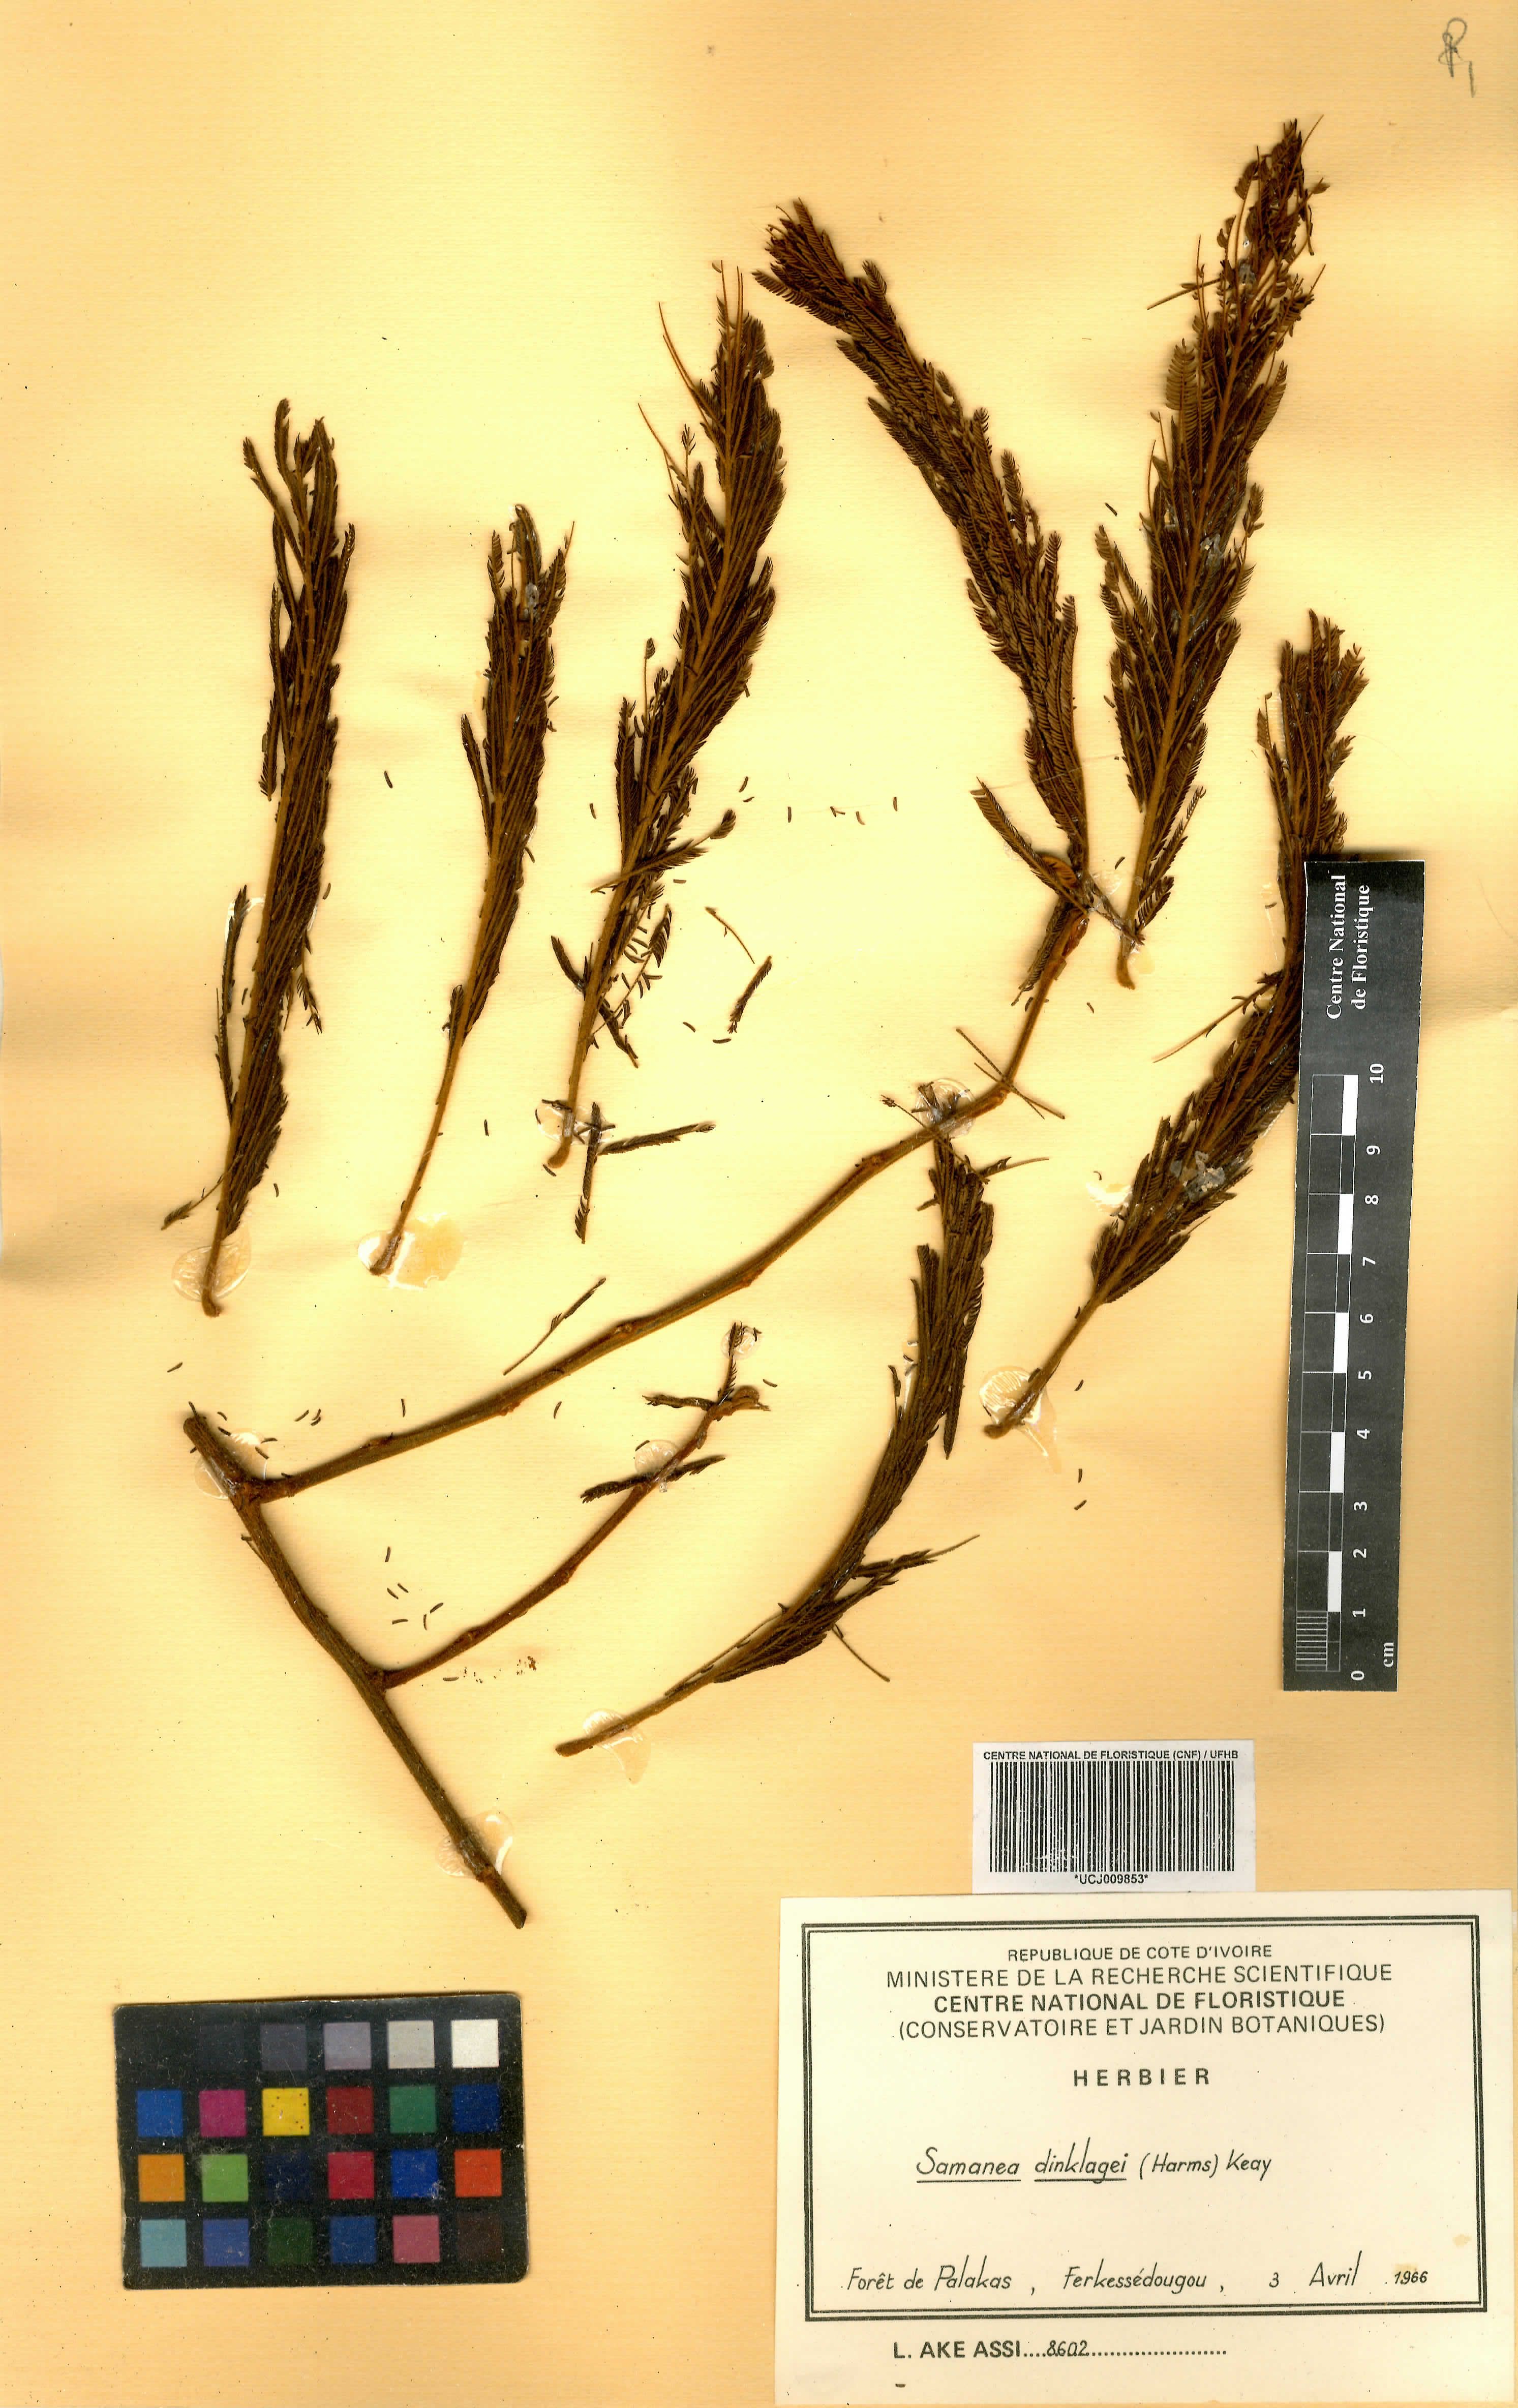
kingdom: Plantae
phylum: Tracheophyta
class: Magnoliopsida
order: Fabales
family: Fabaceae
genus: Albizia
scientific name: Albizia dinklagei
